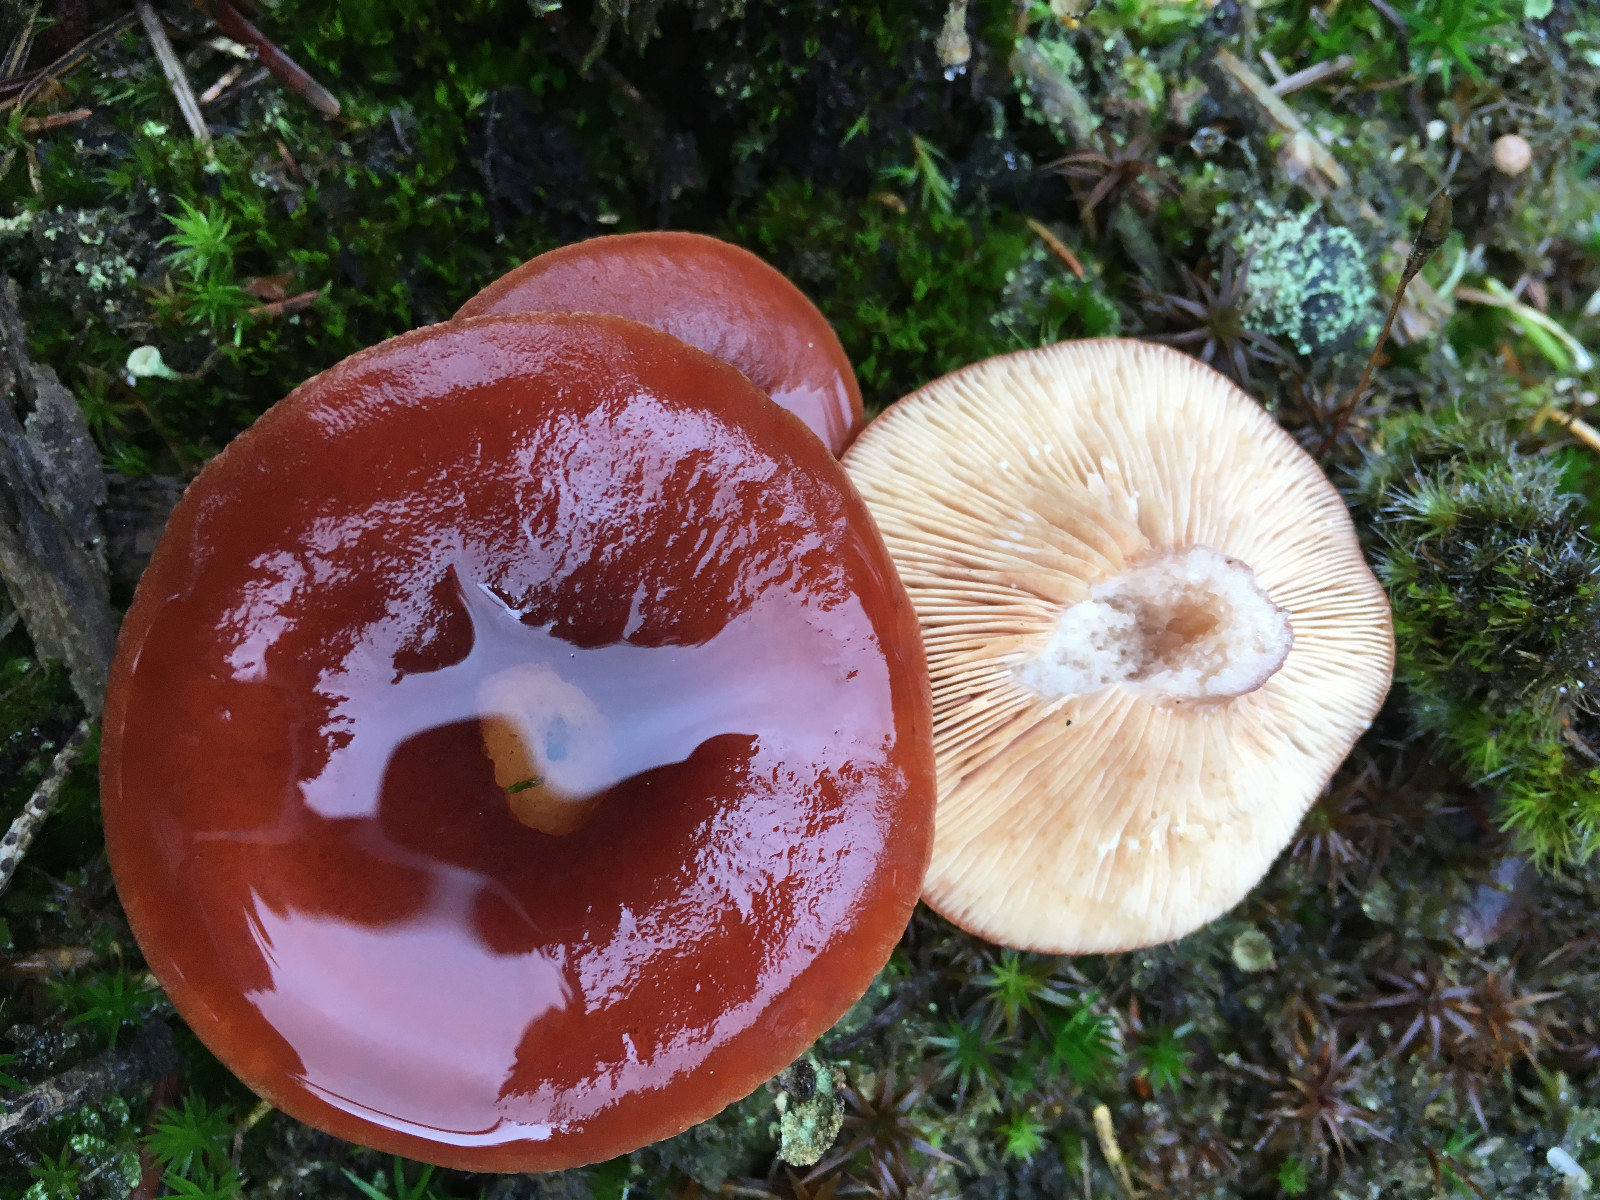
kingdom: Fungi
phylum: Basidiomycota
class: Agaricomycetes
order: Russulales
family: Russulaceae
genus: Lactarius
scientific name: Lactarius rufus
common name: rødbrun mælkehat
